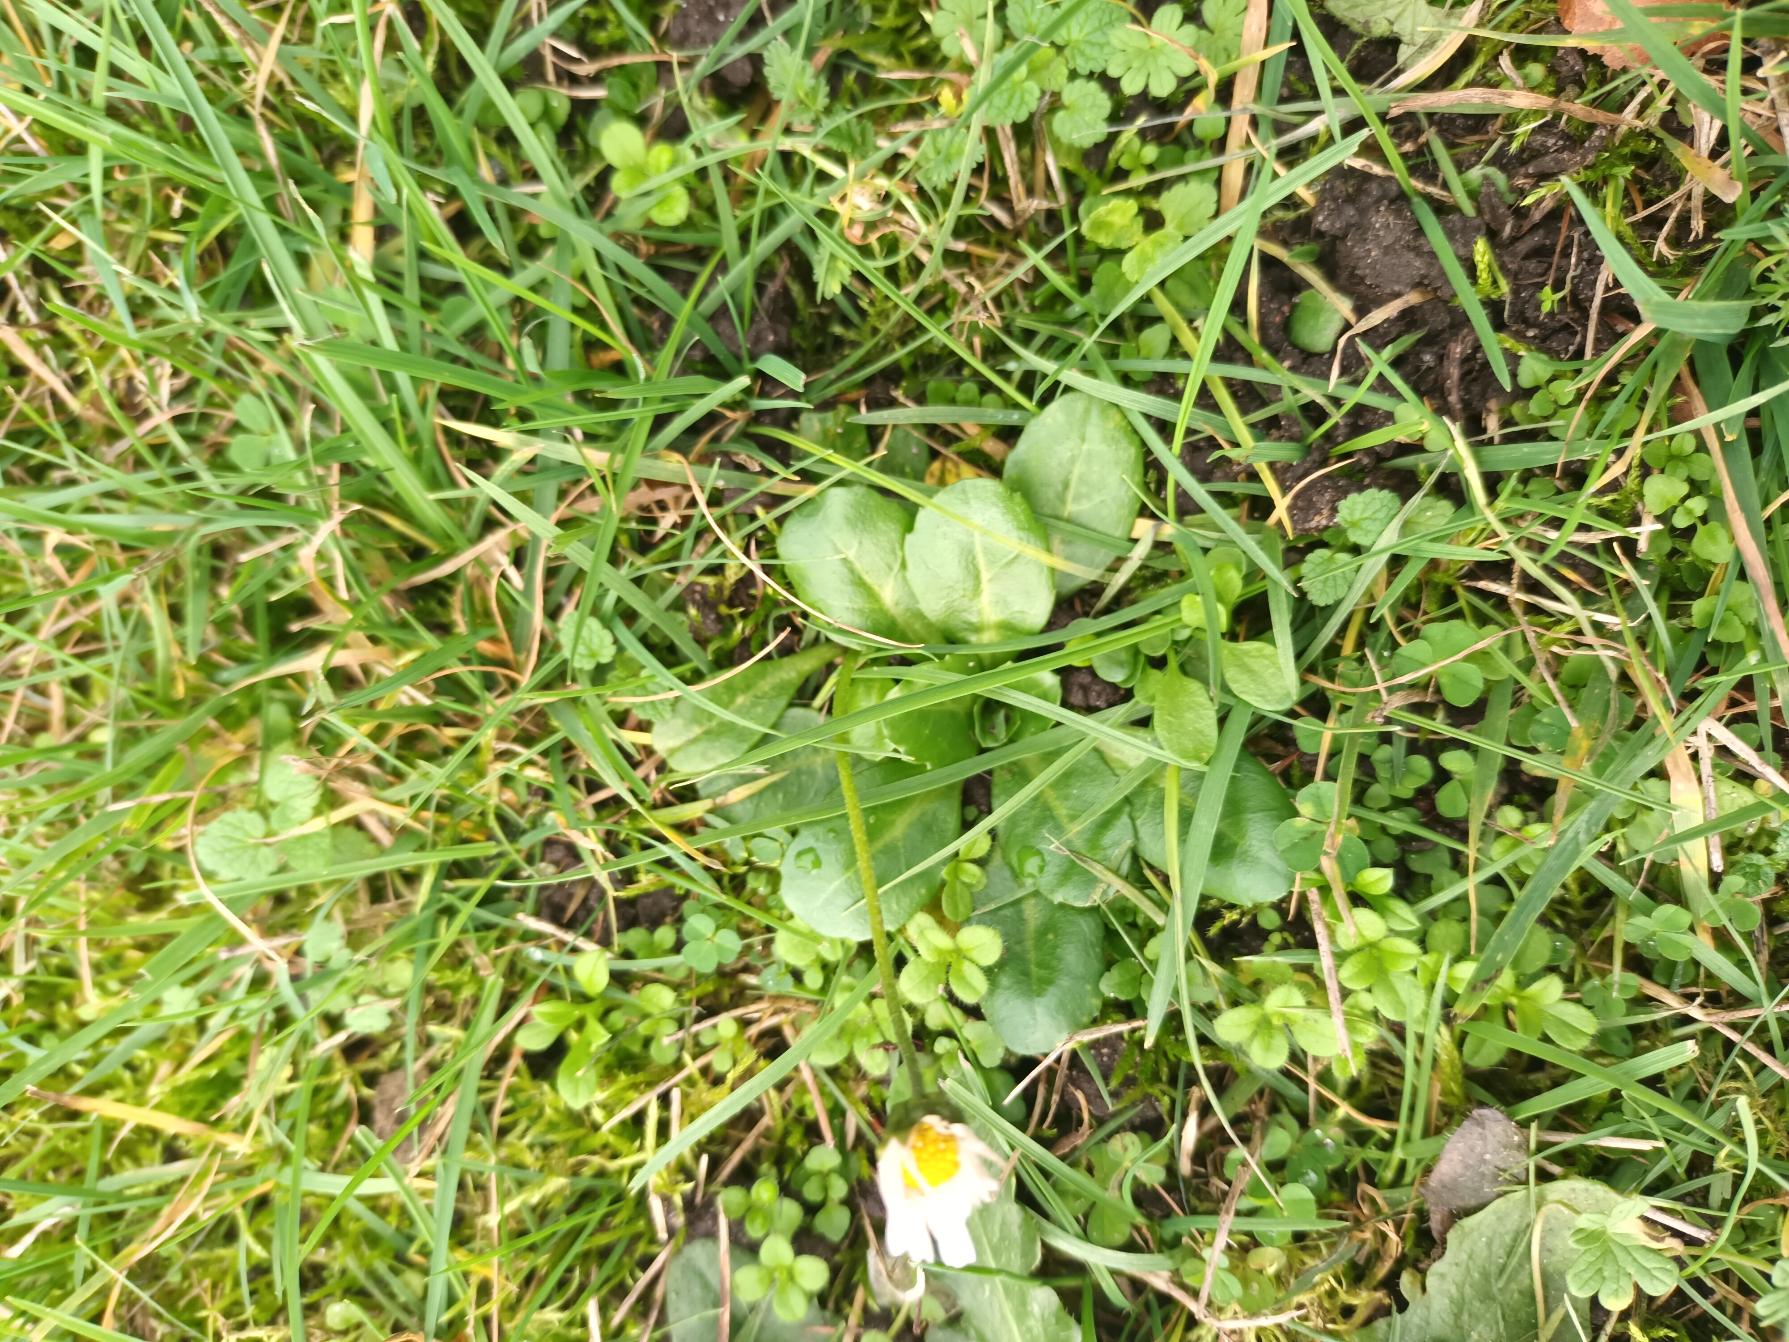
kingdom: Plantae
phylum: Tracheophyta
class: Magnoliopsida
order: Asterales
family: Asteraceae
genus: Bellis
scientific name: Bellis perennis
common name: Tusindfryd
